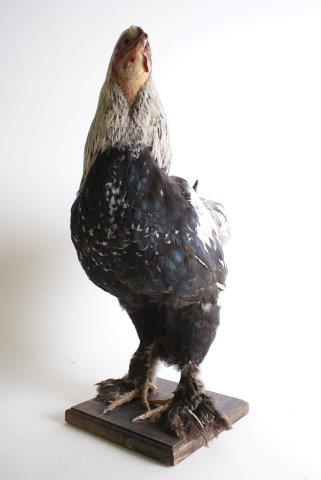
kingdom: Animalia
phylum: Chordata
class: Aves
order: Galliformes
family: Phasianidae
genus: Gallus
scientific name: Gallus gallus
